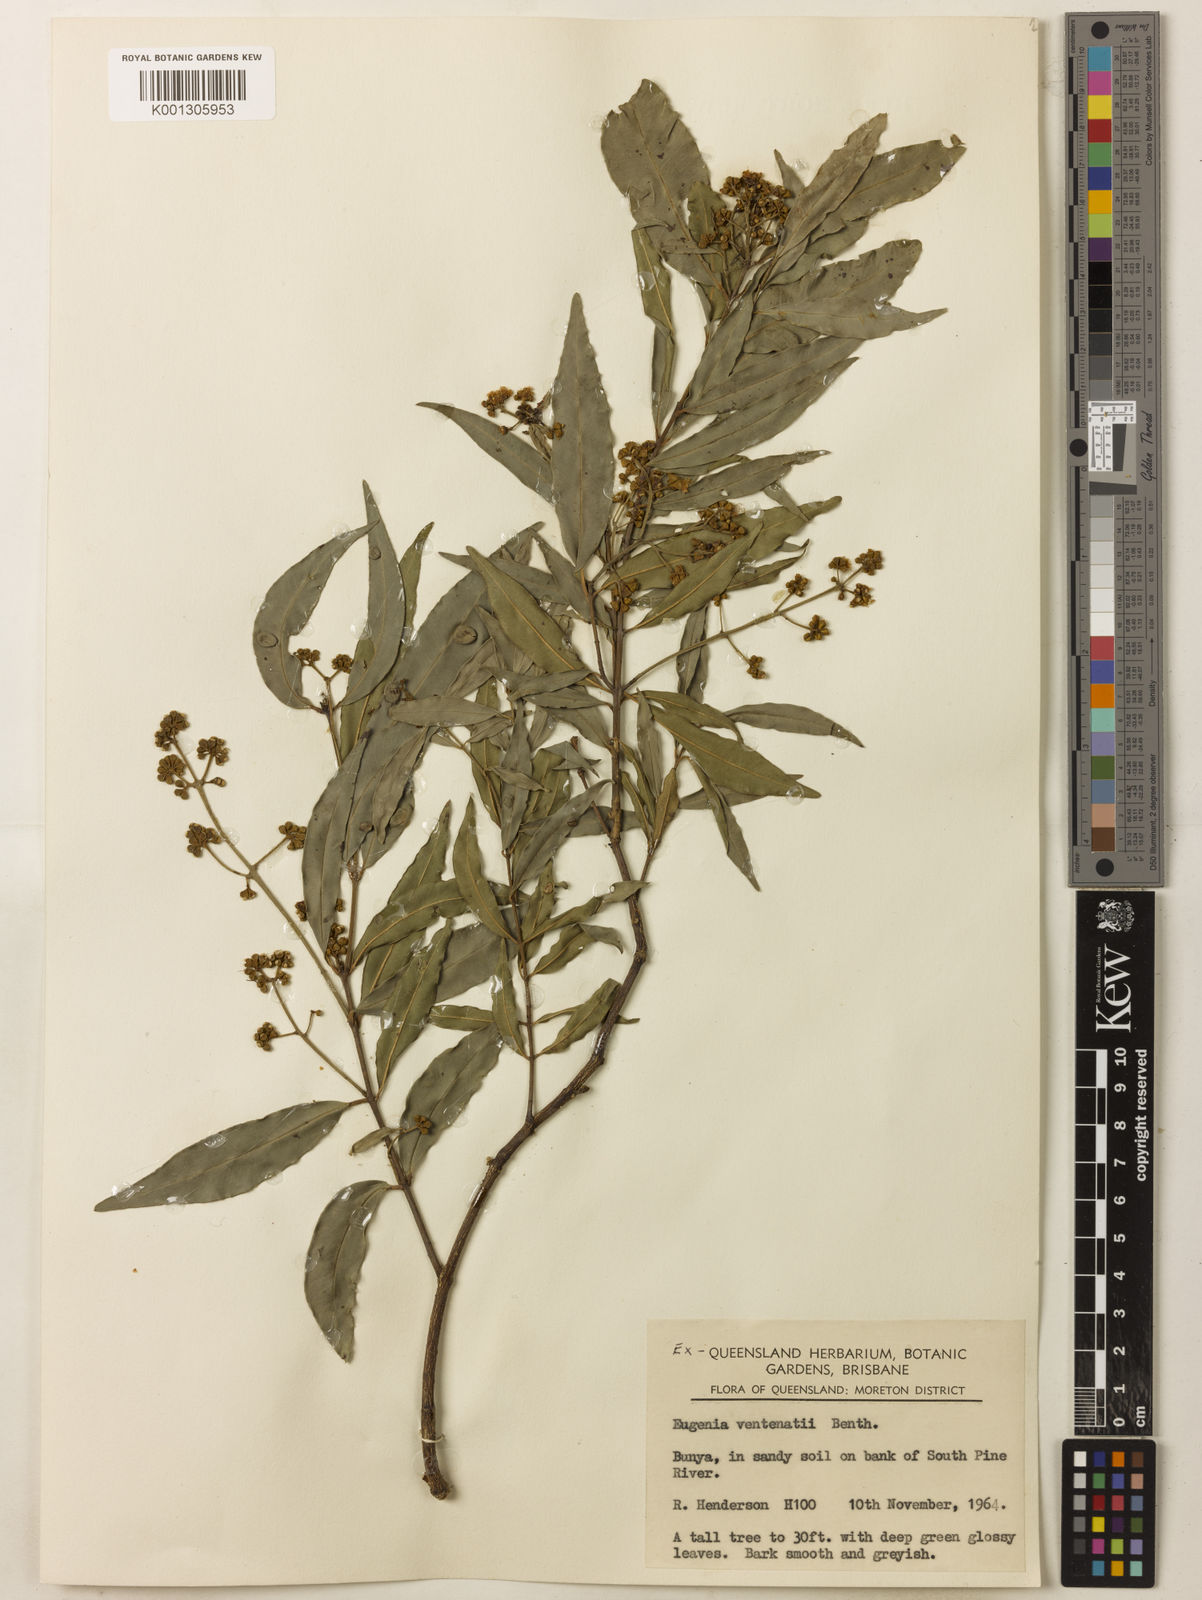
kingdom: Plantae
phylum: Tracheophyta
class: Magnoliopsida
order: Myrtales
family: Myrtaceae
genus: Syzygium
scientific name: Syzygium floribundum
